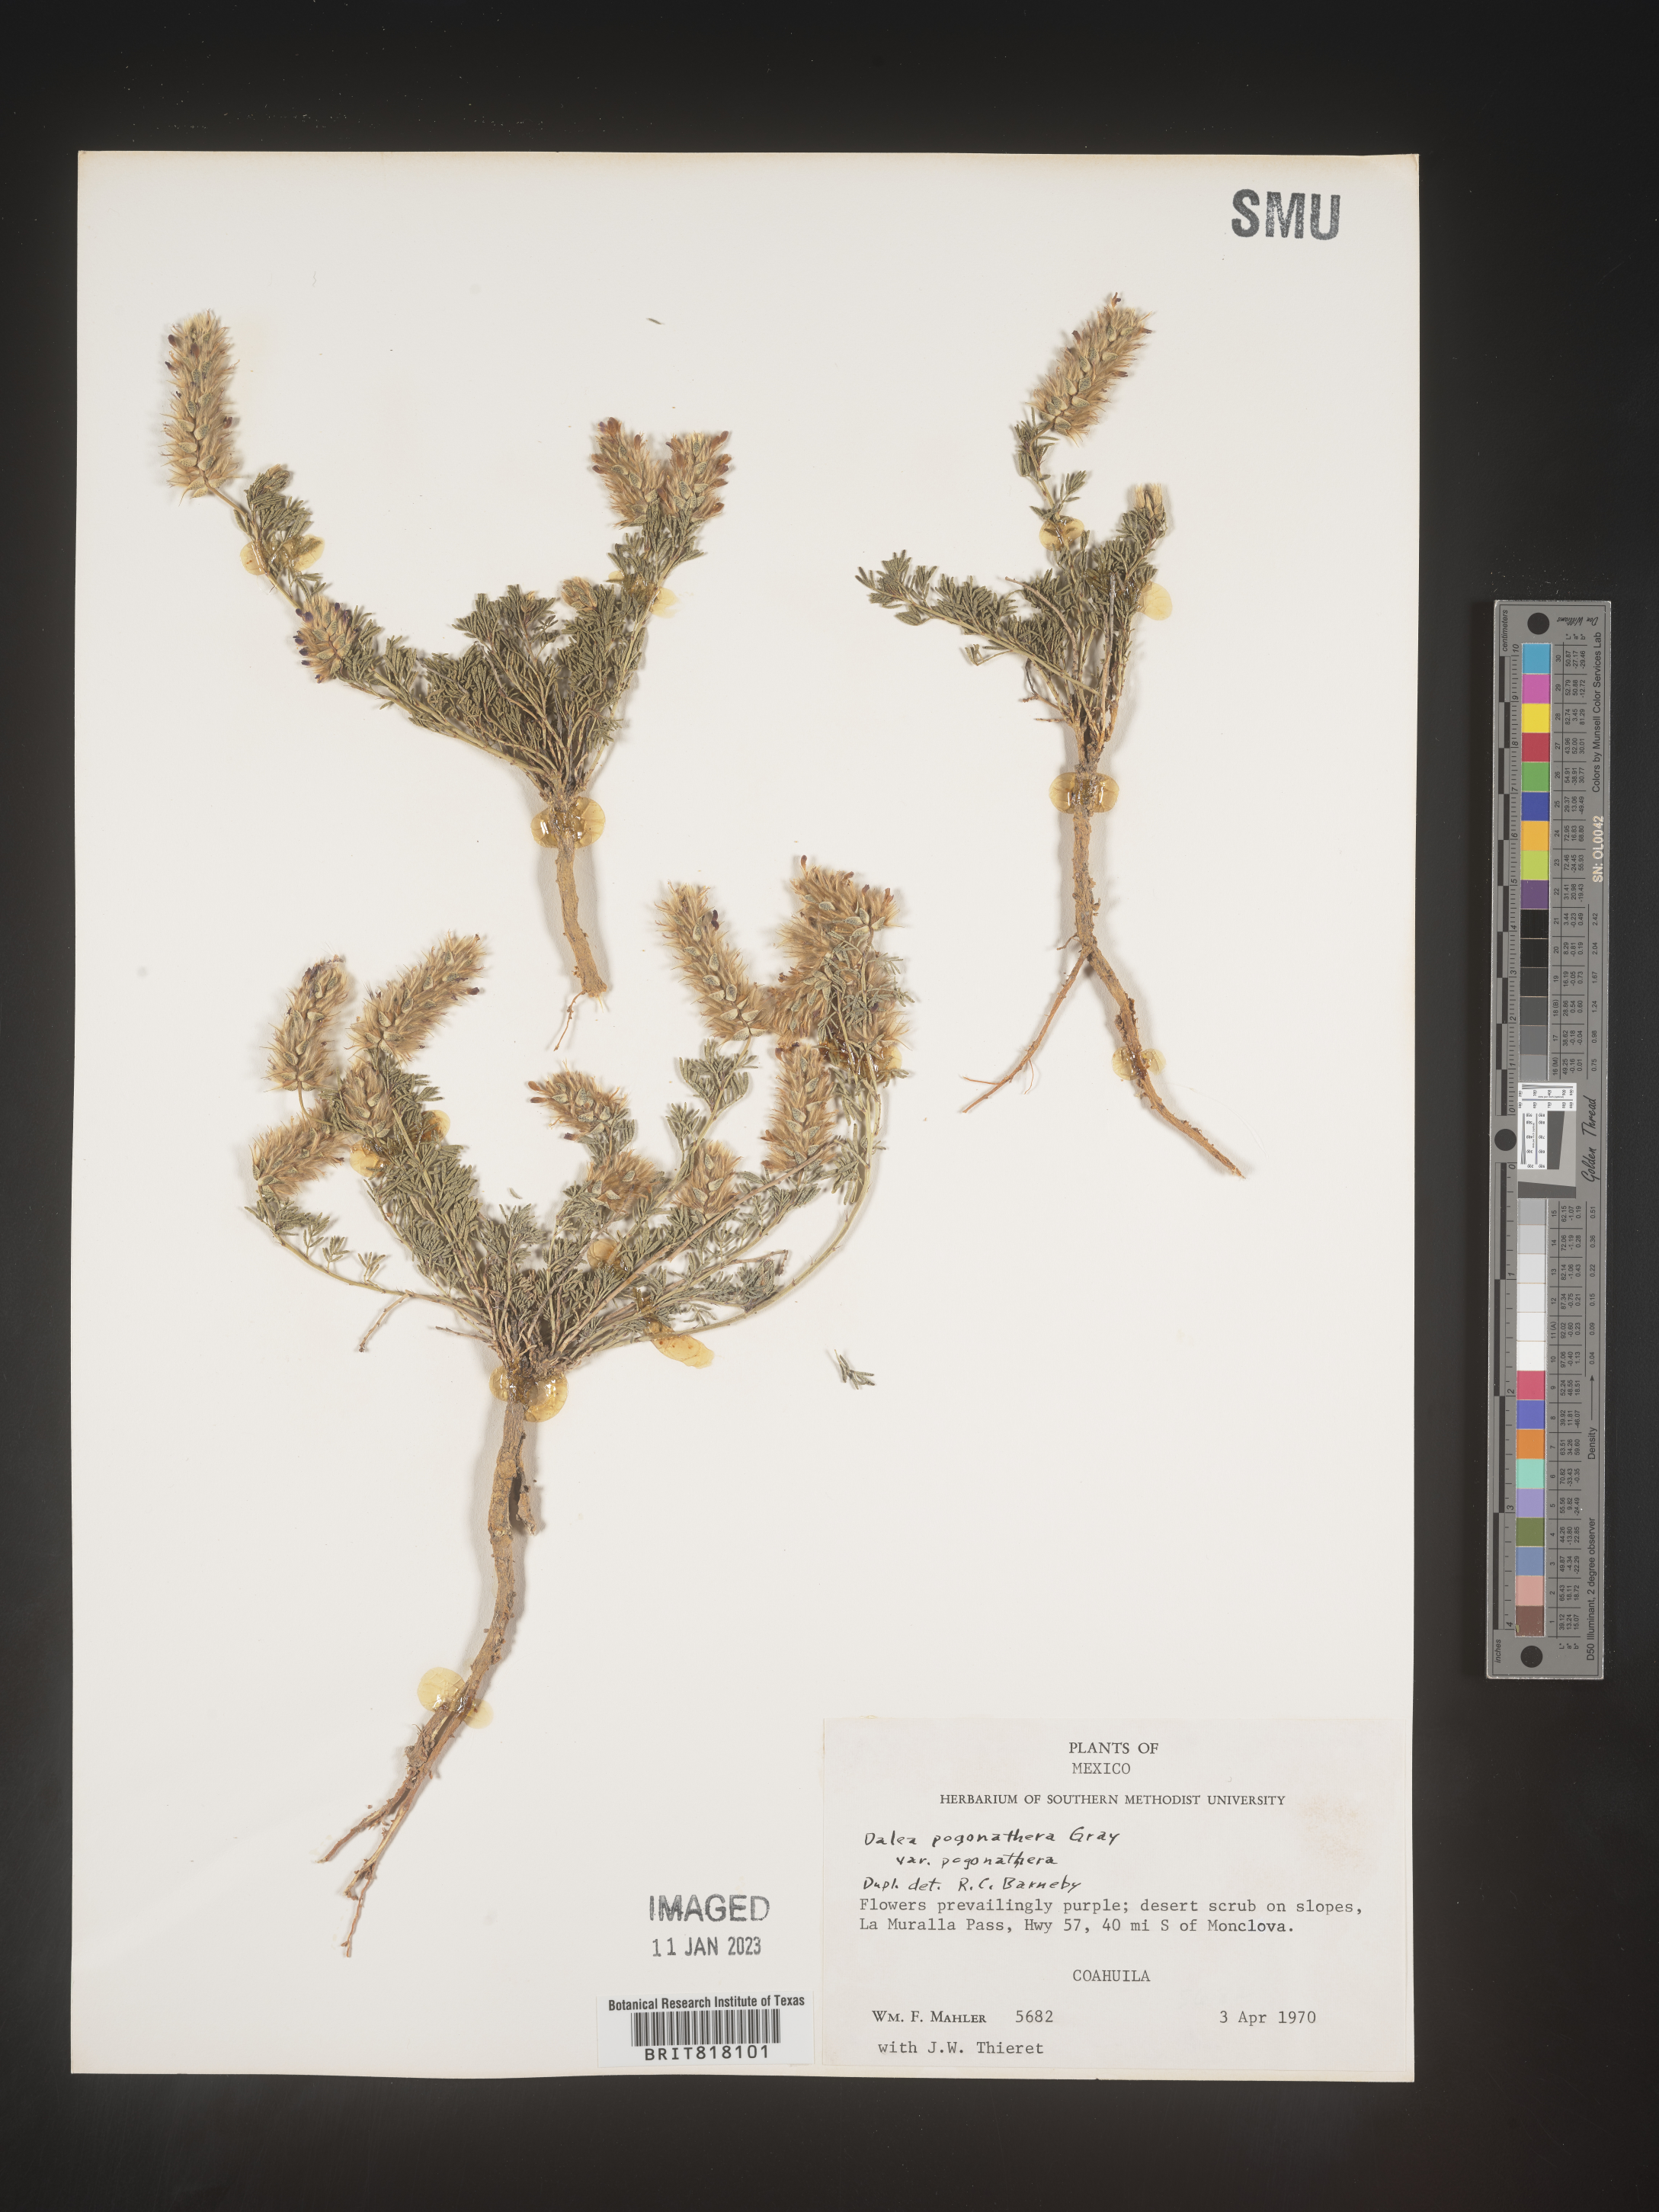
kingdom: Plantae
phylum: Tracheophyta
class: Magnoliopsida
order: Fabales
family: Fabaceae
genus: Dalea
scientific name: Dalea
